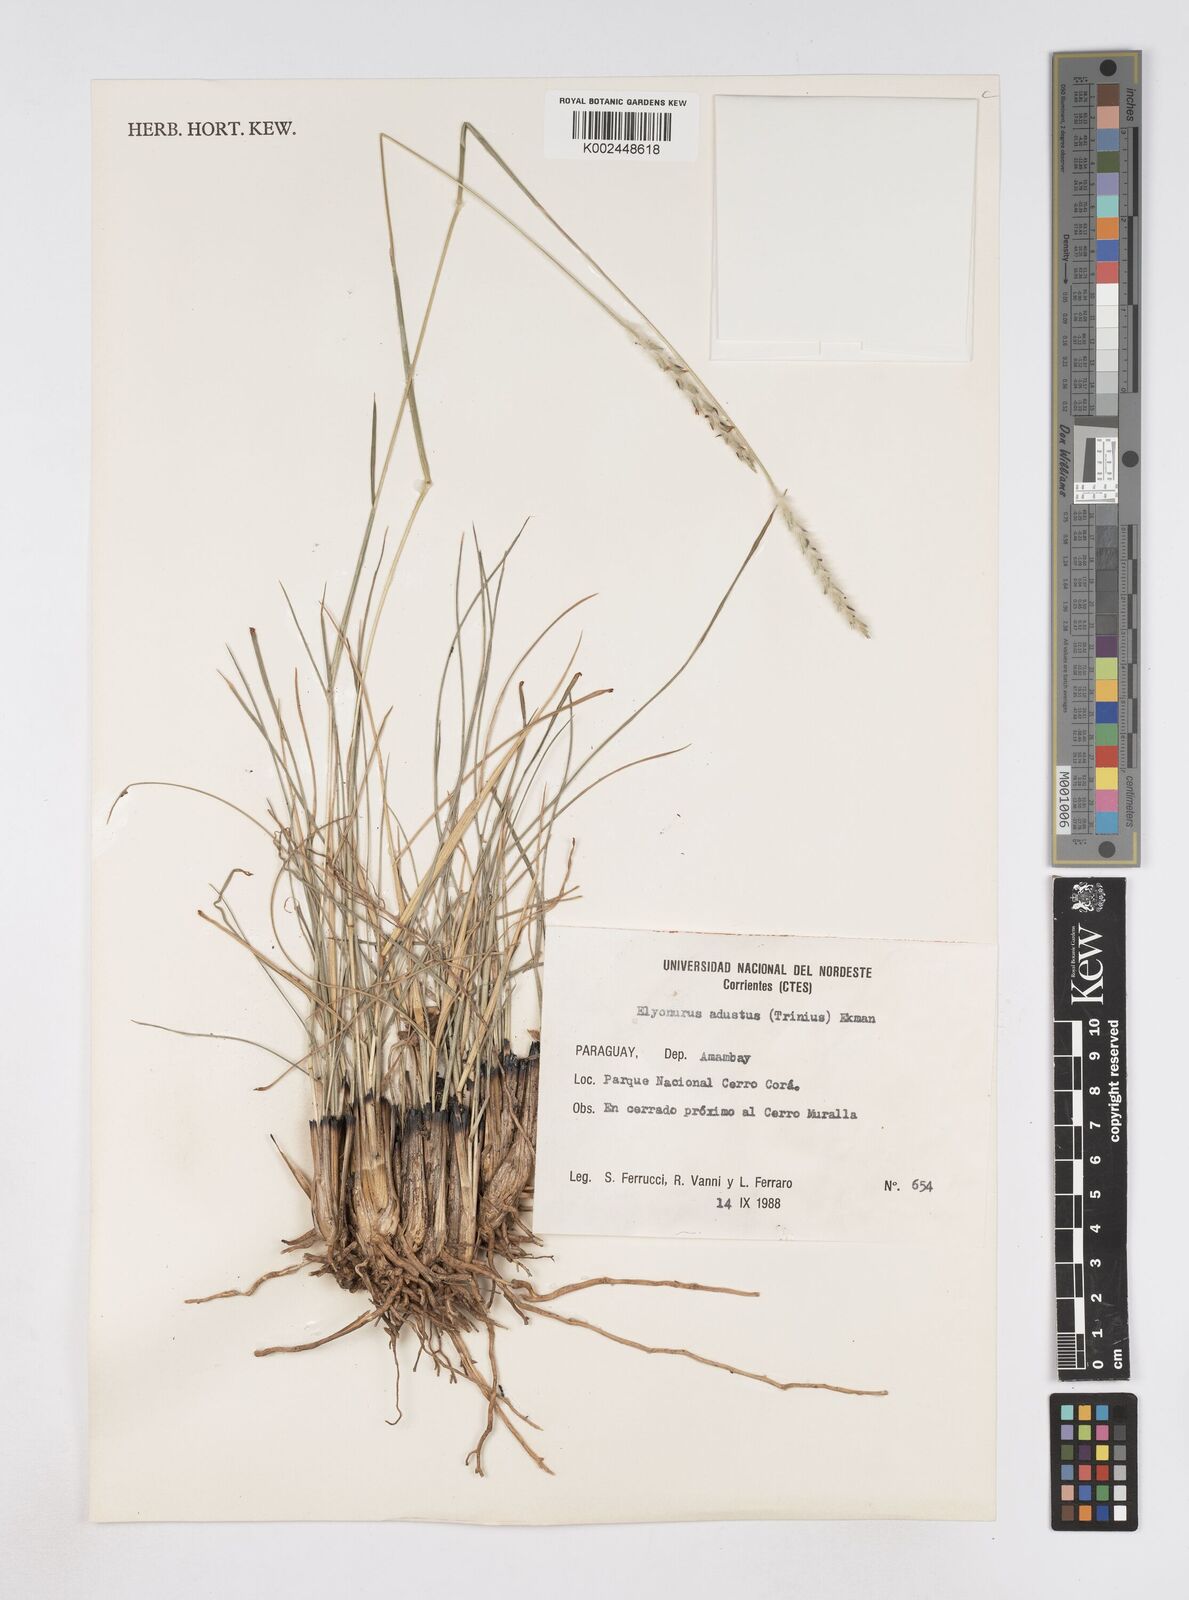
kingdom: Plantae
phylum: Tracheophyta
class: Liliopsida
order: Poales
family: Poaceae
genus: Elionurus
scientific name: Elionurus muticus
